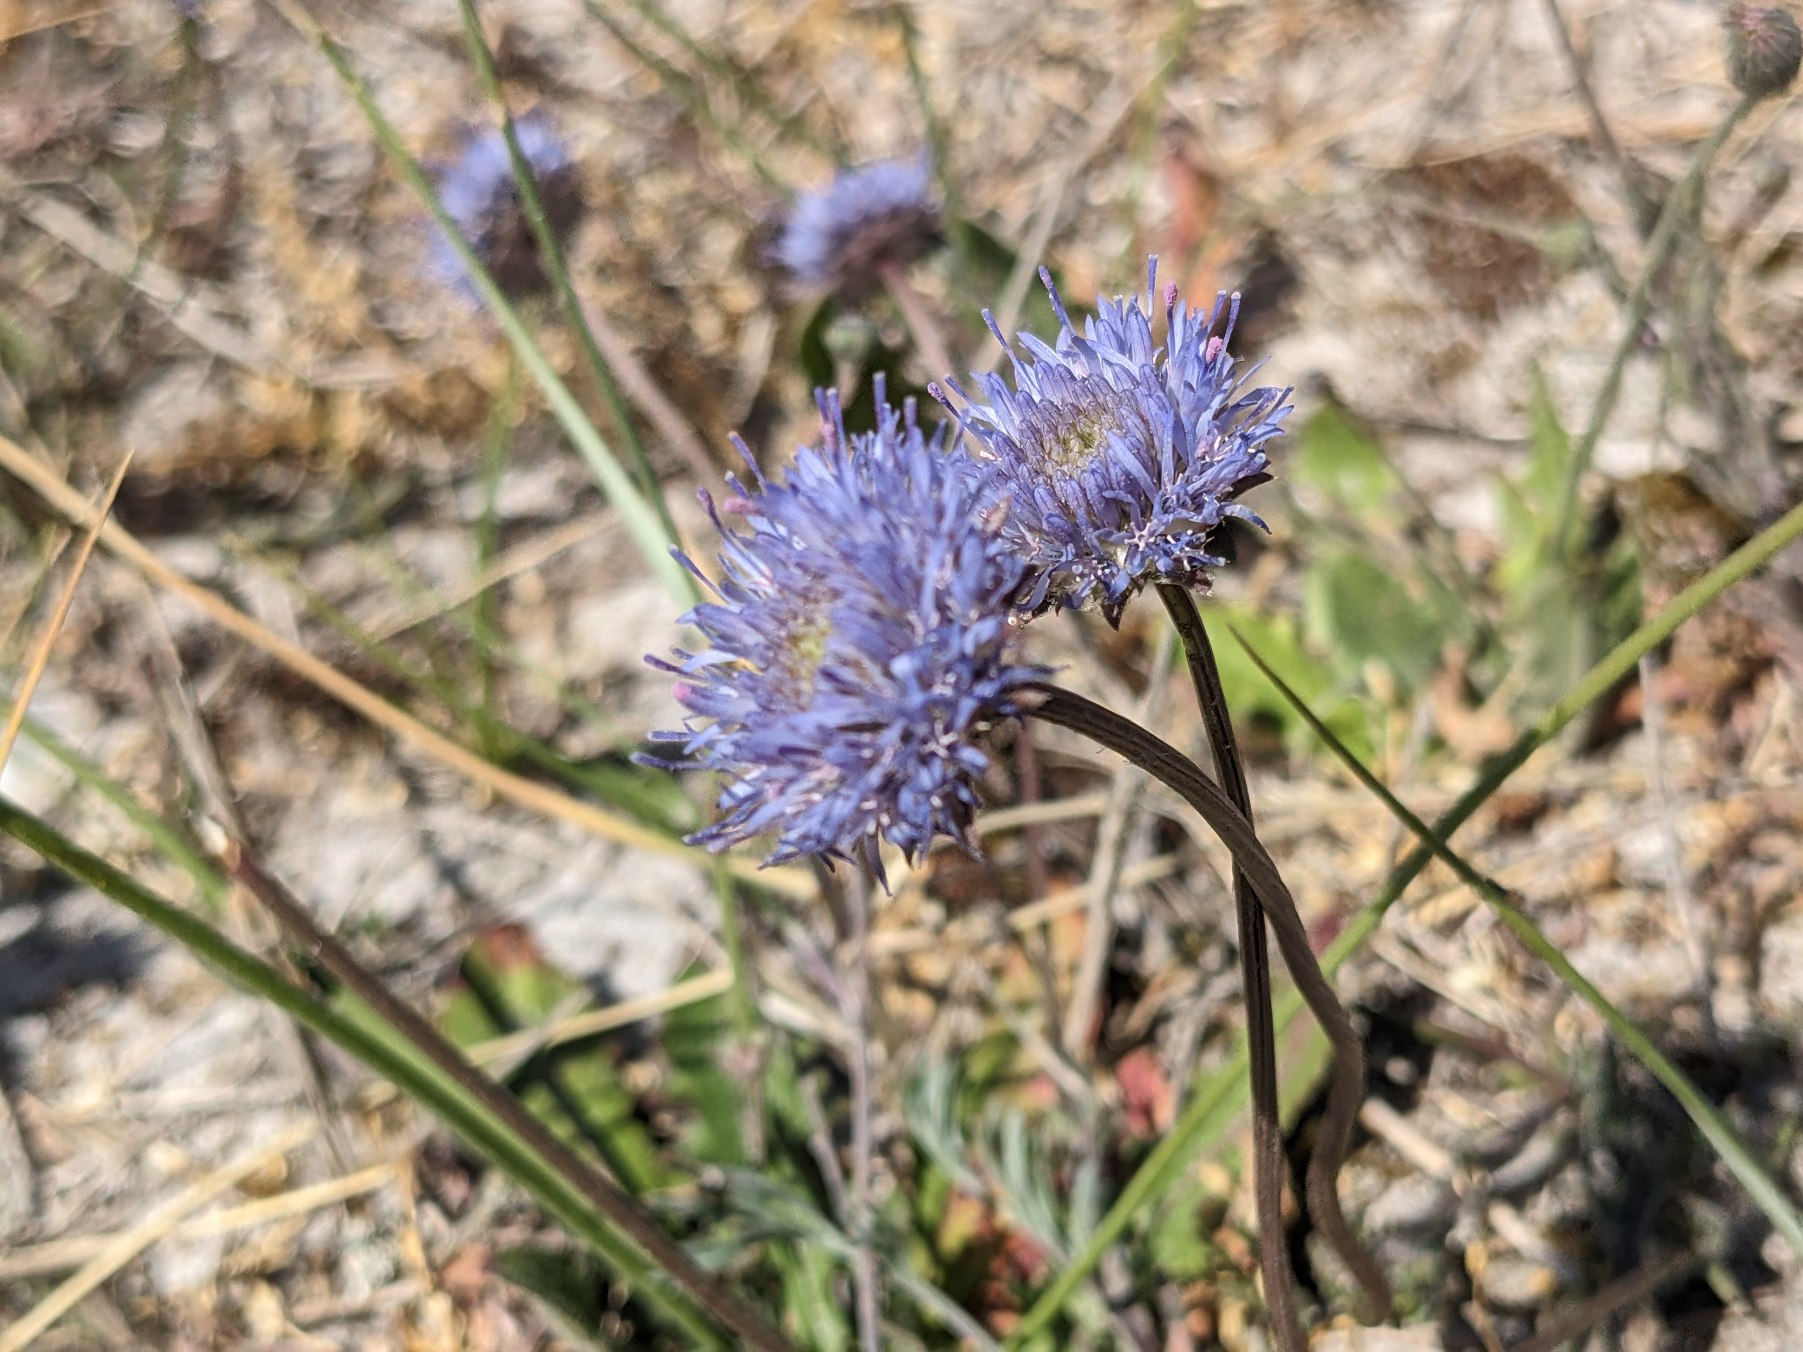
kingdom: Plantae
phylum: Tracheophyta
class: Magnoliopsida
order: Asterales
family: Campanulaceae
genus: Jasione
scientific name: Jasione montana
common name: Blåmunke
